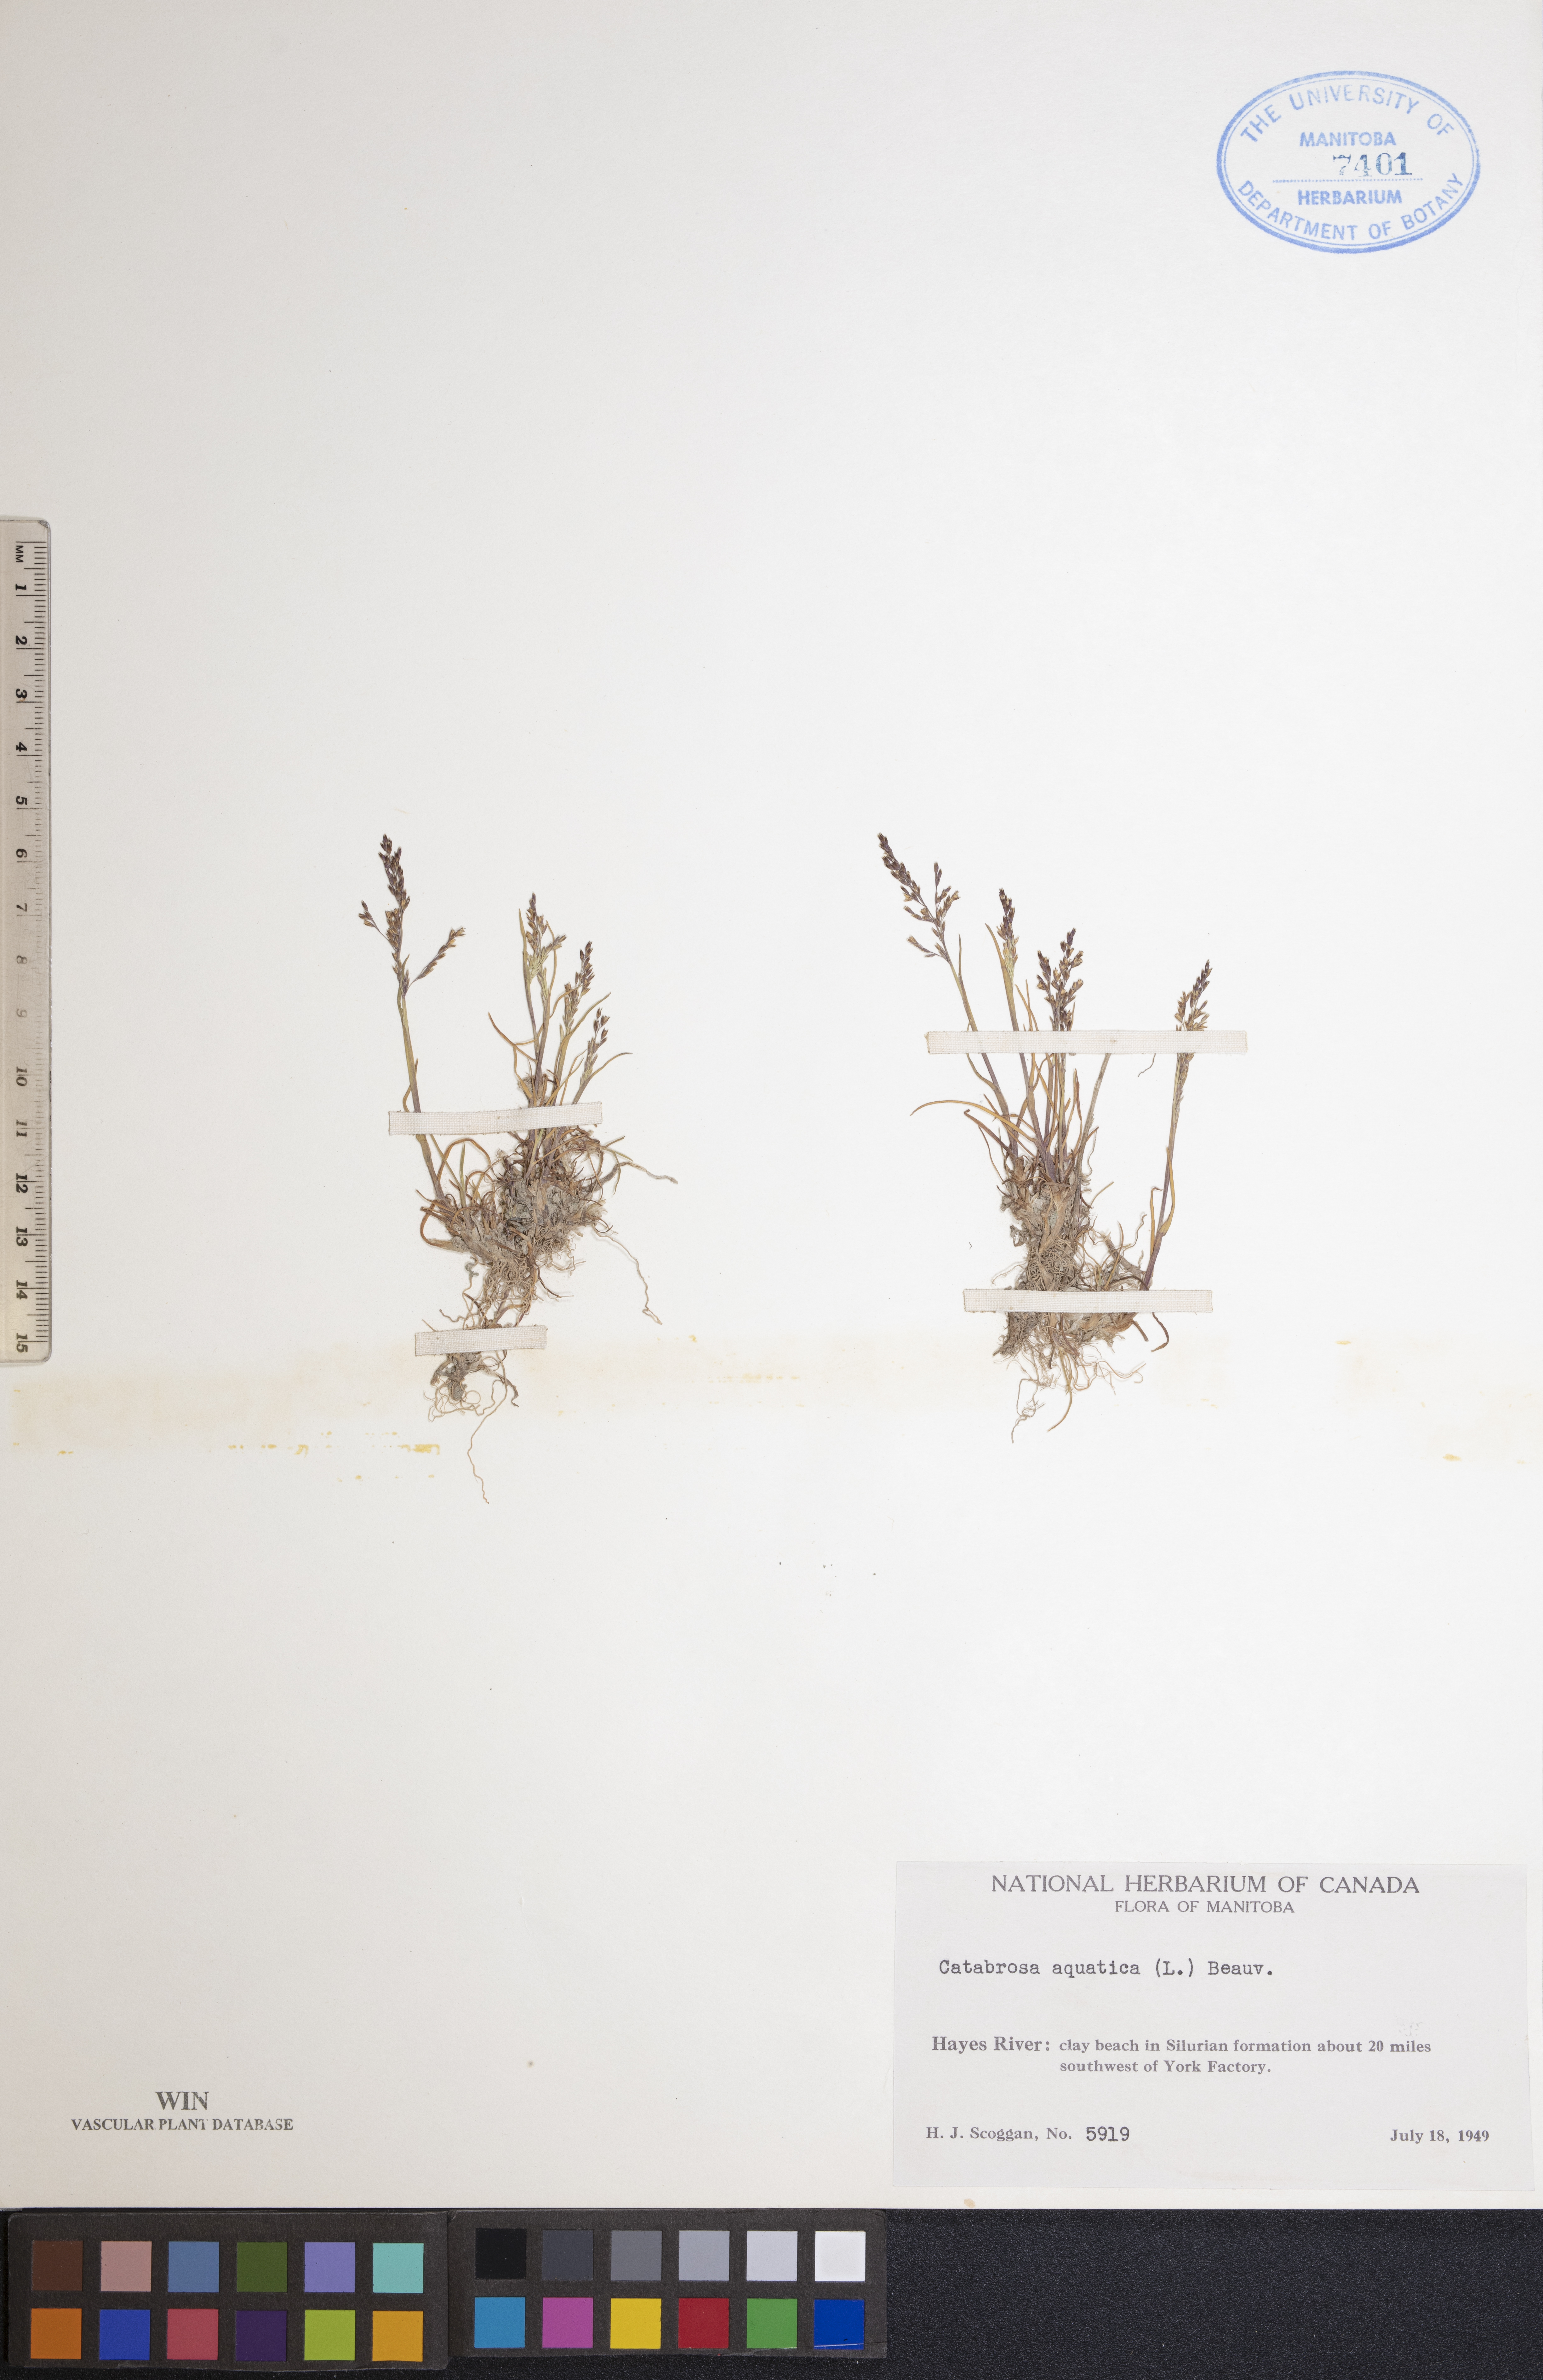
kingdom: Plantae
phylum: Tracheophyta
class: Liliopsida
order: Poales
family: Poaceae
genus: Catabrosa
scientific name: Catabrosa aquatica
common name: Whorl-grass
